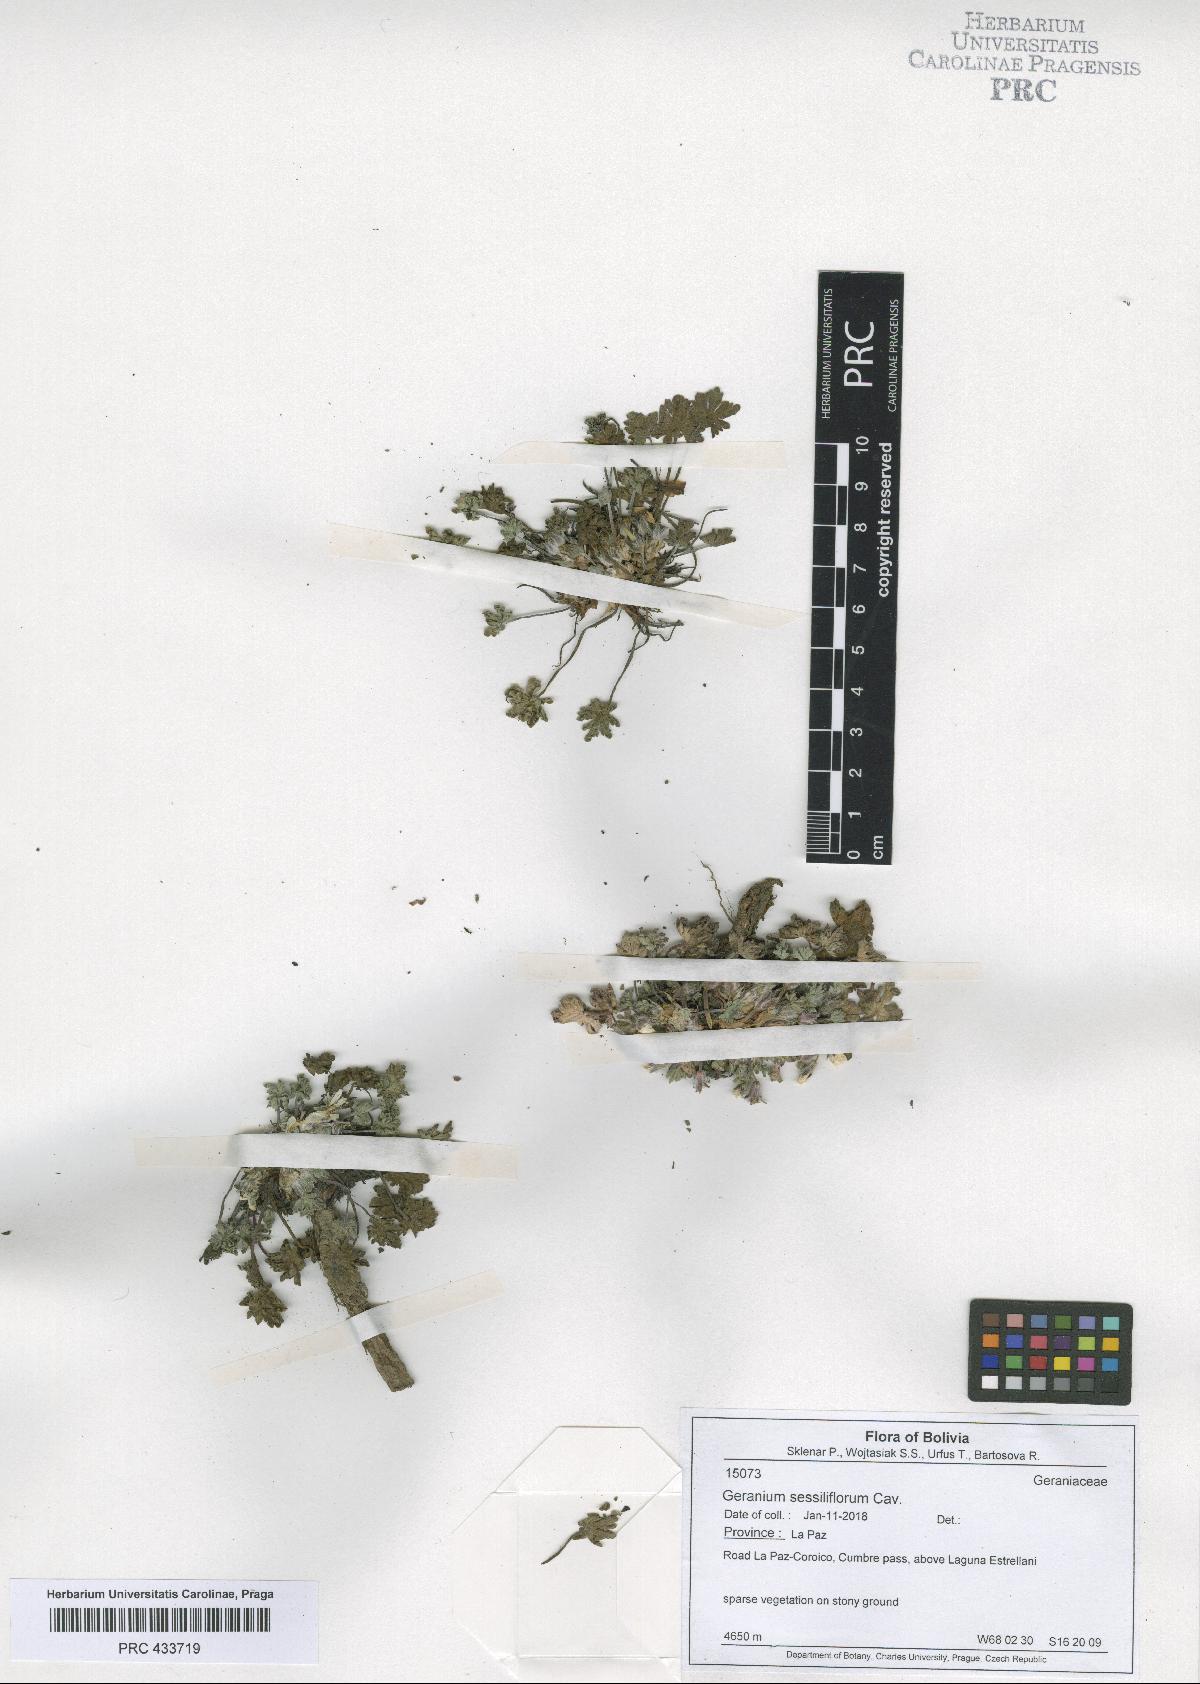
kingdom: Plantae
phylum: Tracheophyta
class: Magnoliopsida
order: Geraniales
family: Geraniaceae
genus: Geranium
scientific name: Geranium sessiliflorum
